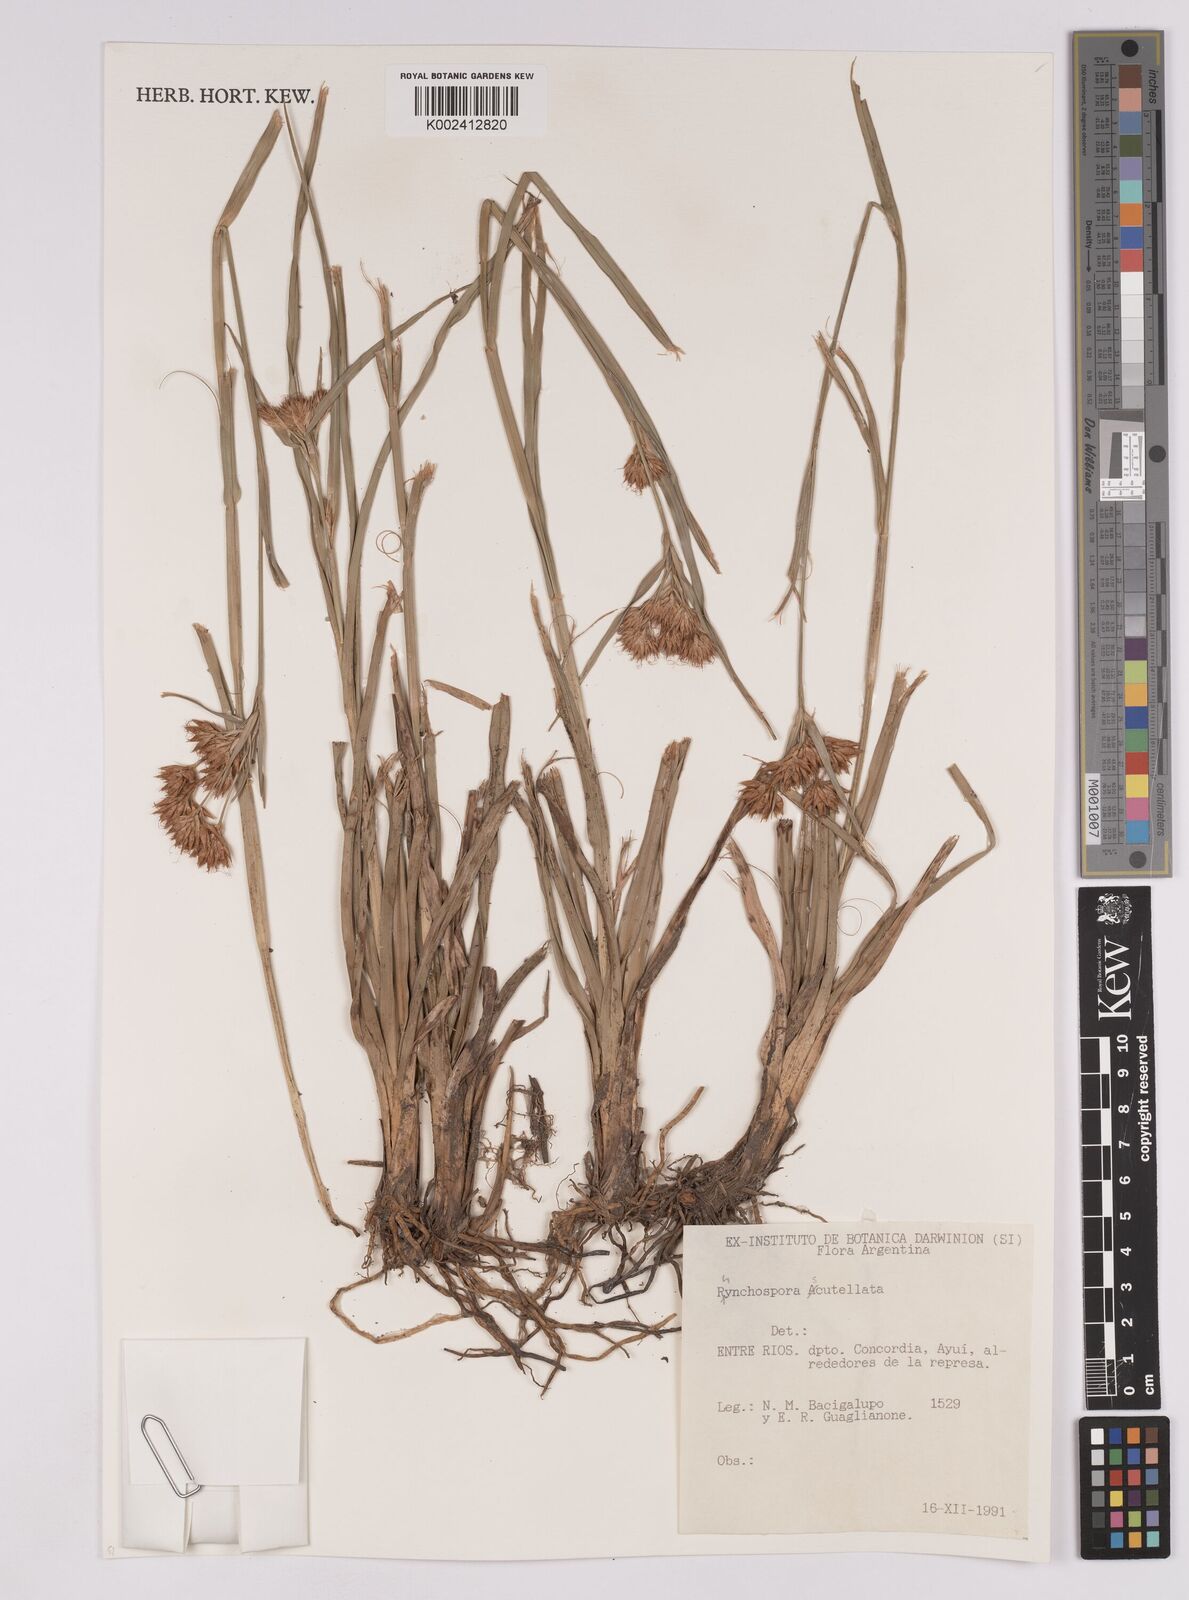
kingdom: Plantae
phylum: Tracheophyta
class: Liliopsida
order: Poales
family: Cyperaceae
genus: Rhynchospora
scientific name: Rhynchospora scutellata
